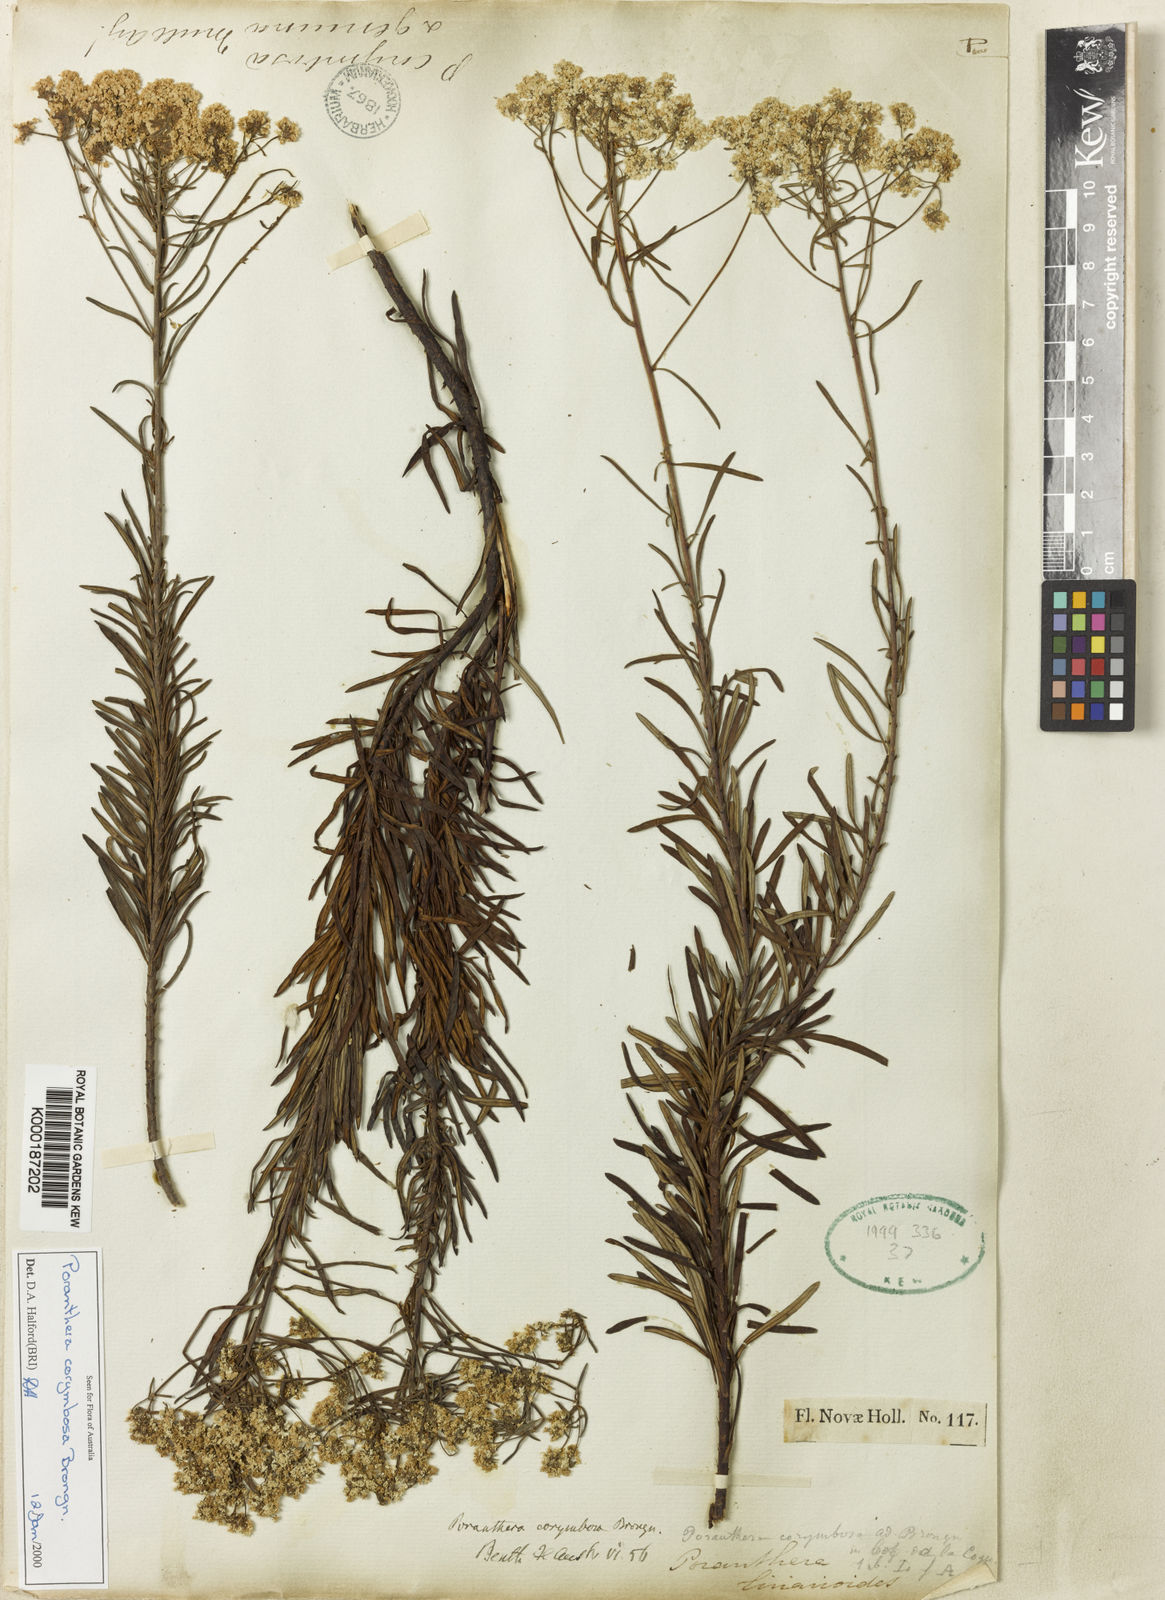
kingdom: Plantae
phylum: Tracheophyta
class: Magnoliopsida
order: Malpighiales
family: Phyllanthaceae
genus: Poranthera
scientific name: Poranthera corymbosa
